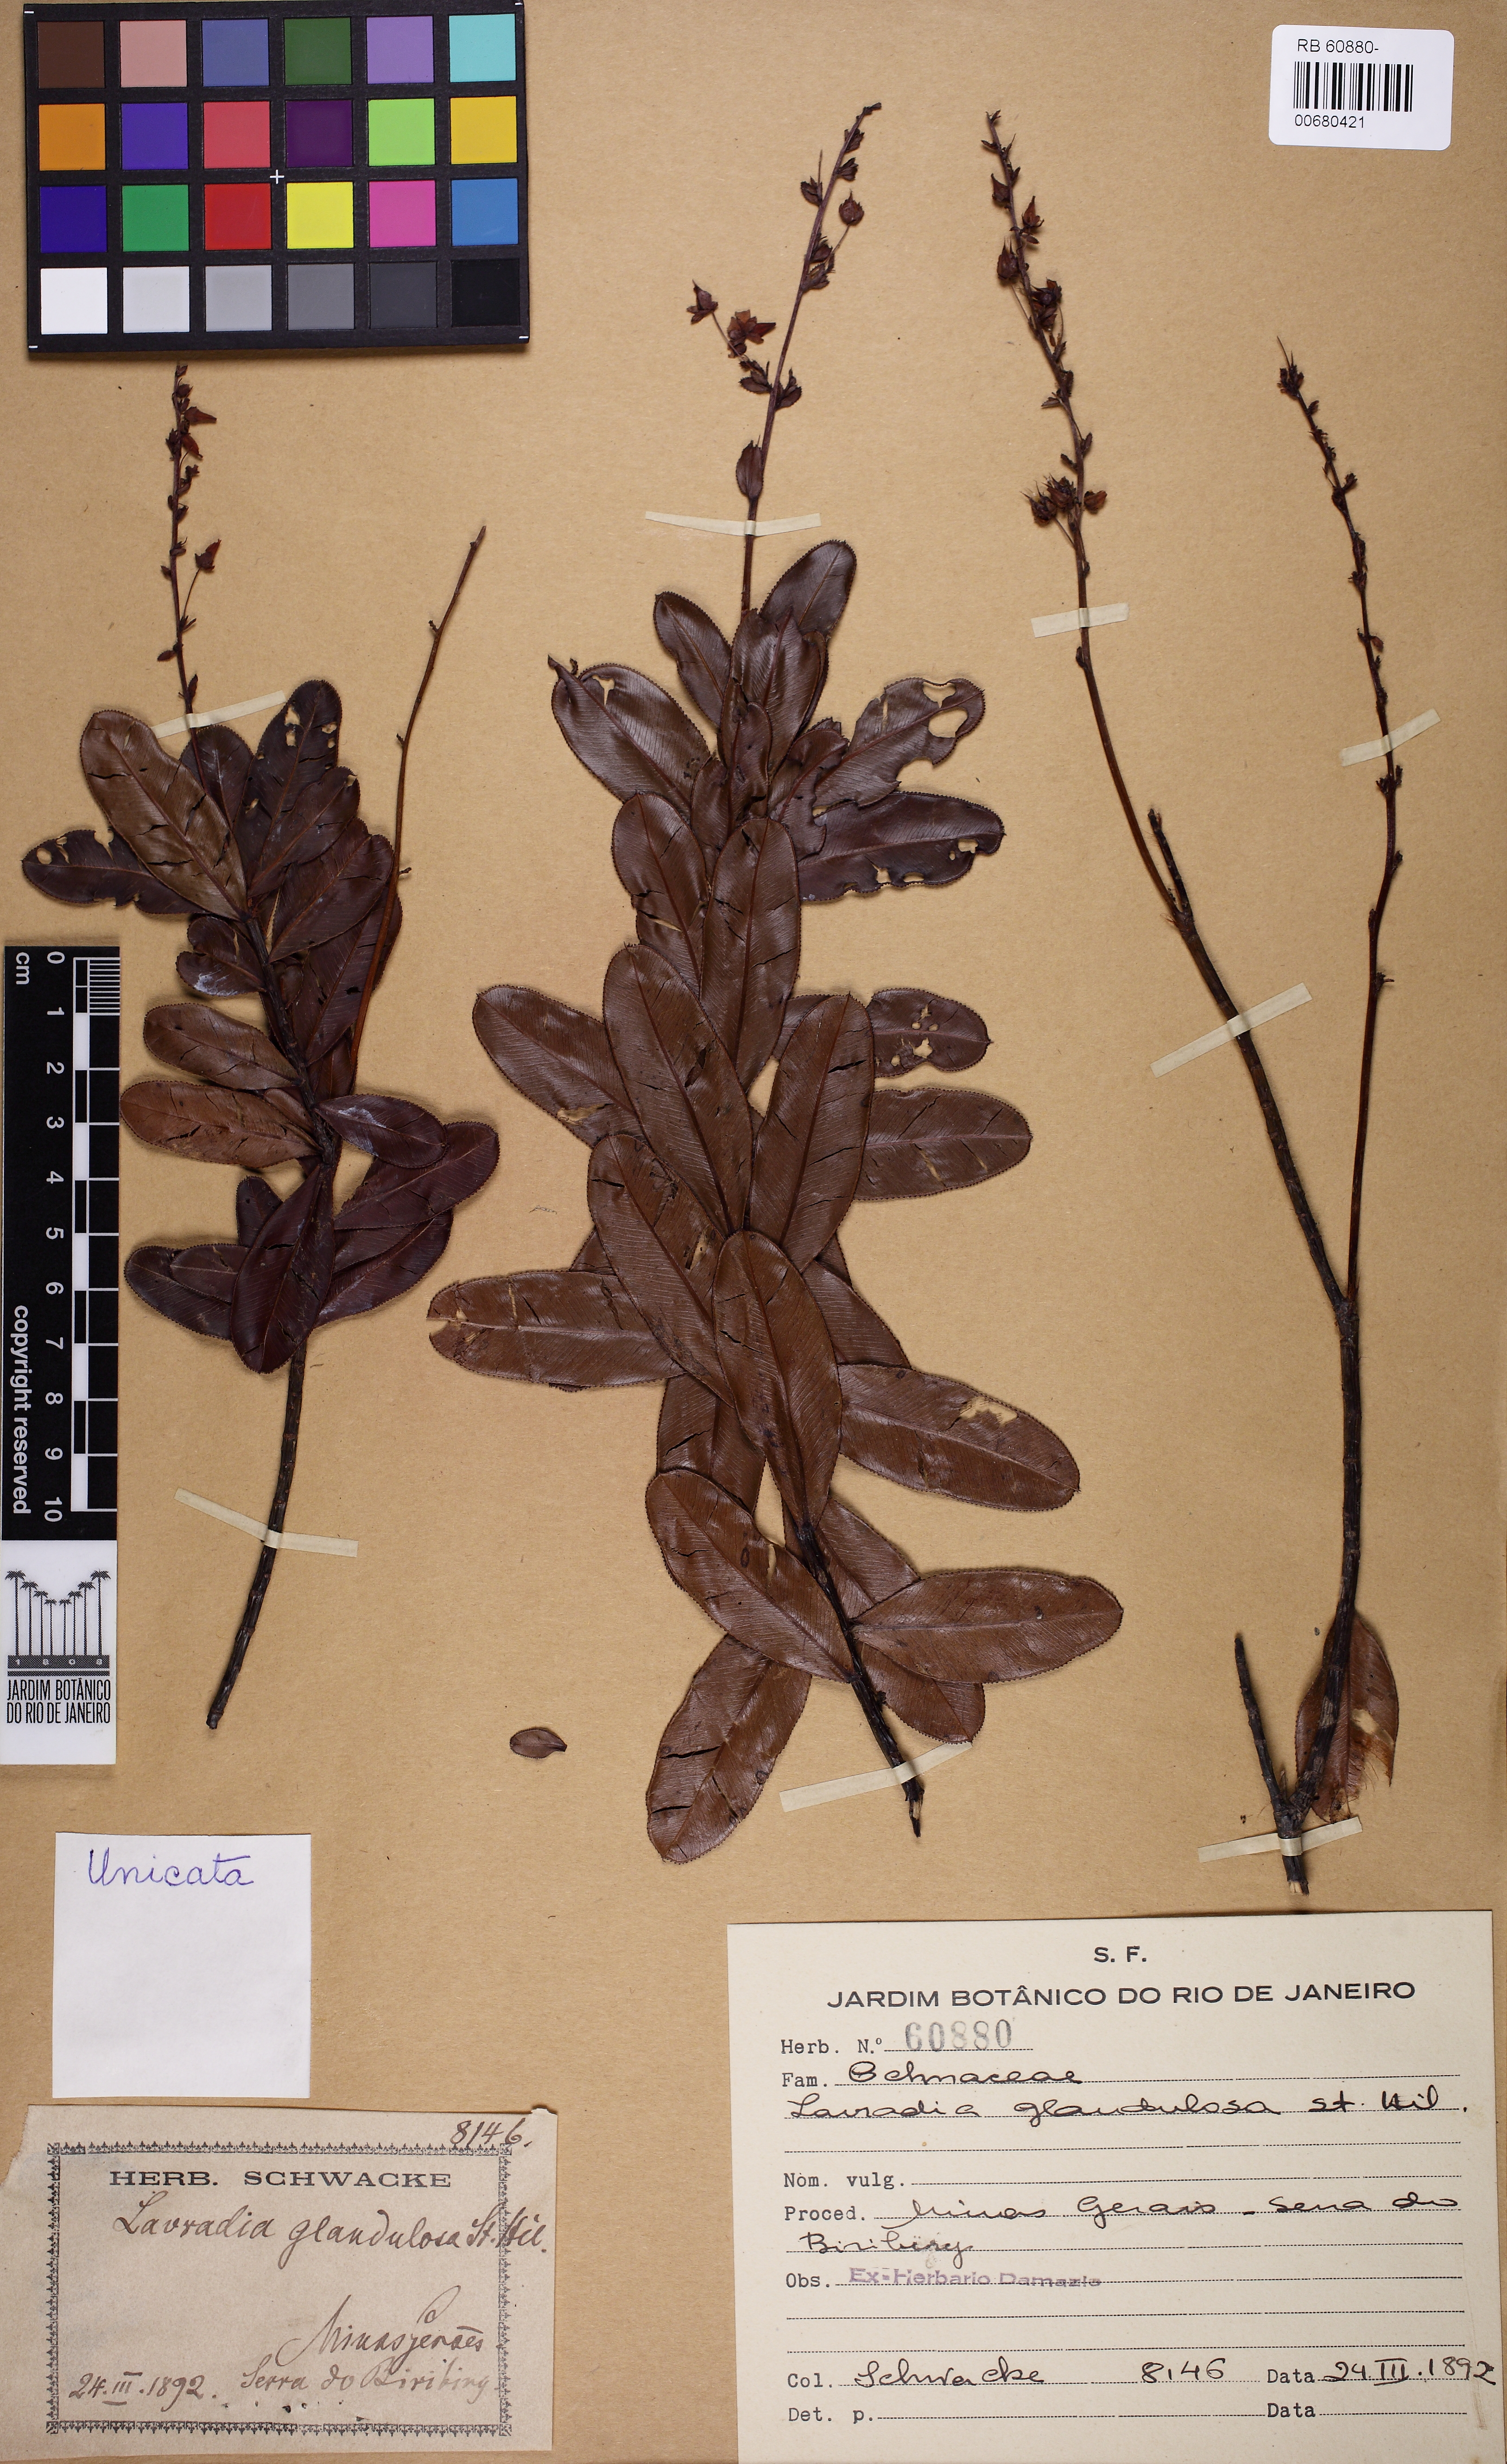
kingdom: Plantae
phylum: Tracheophyta
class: Magnoliopsida
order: Malpighiales
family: Ochnaceae
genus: Sauvagesia
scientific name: Sauvagesia glandulosa
